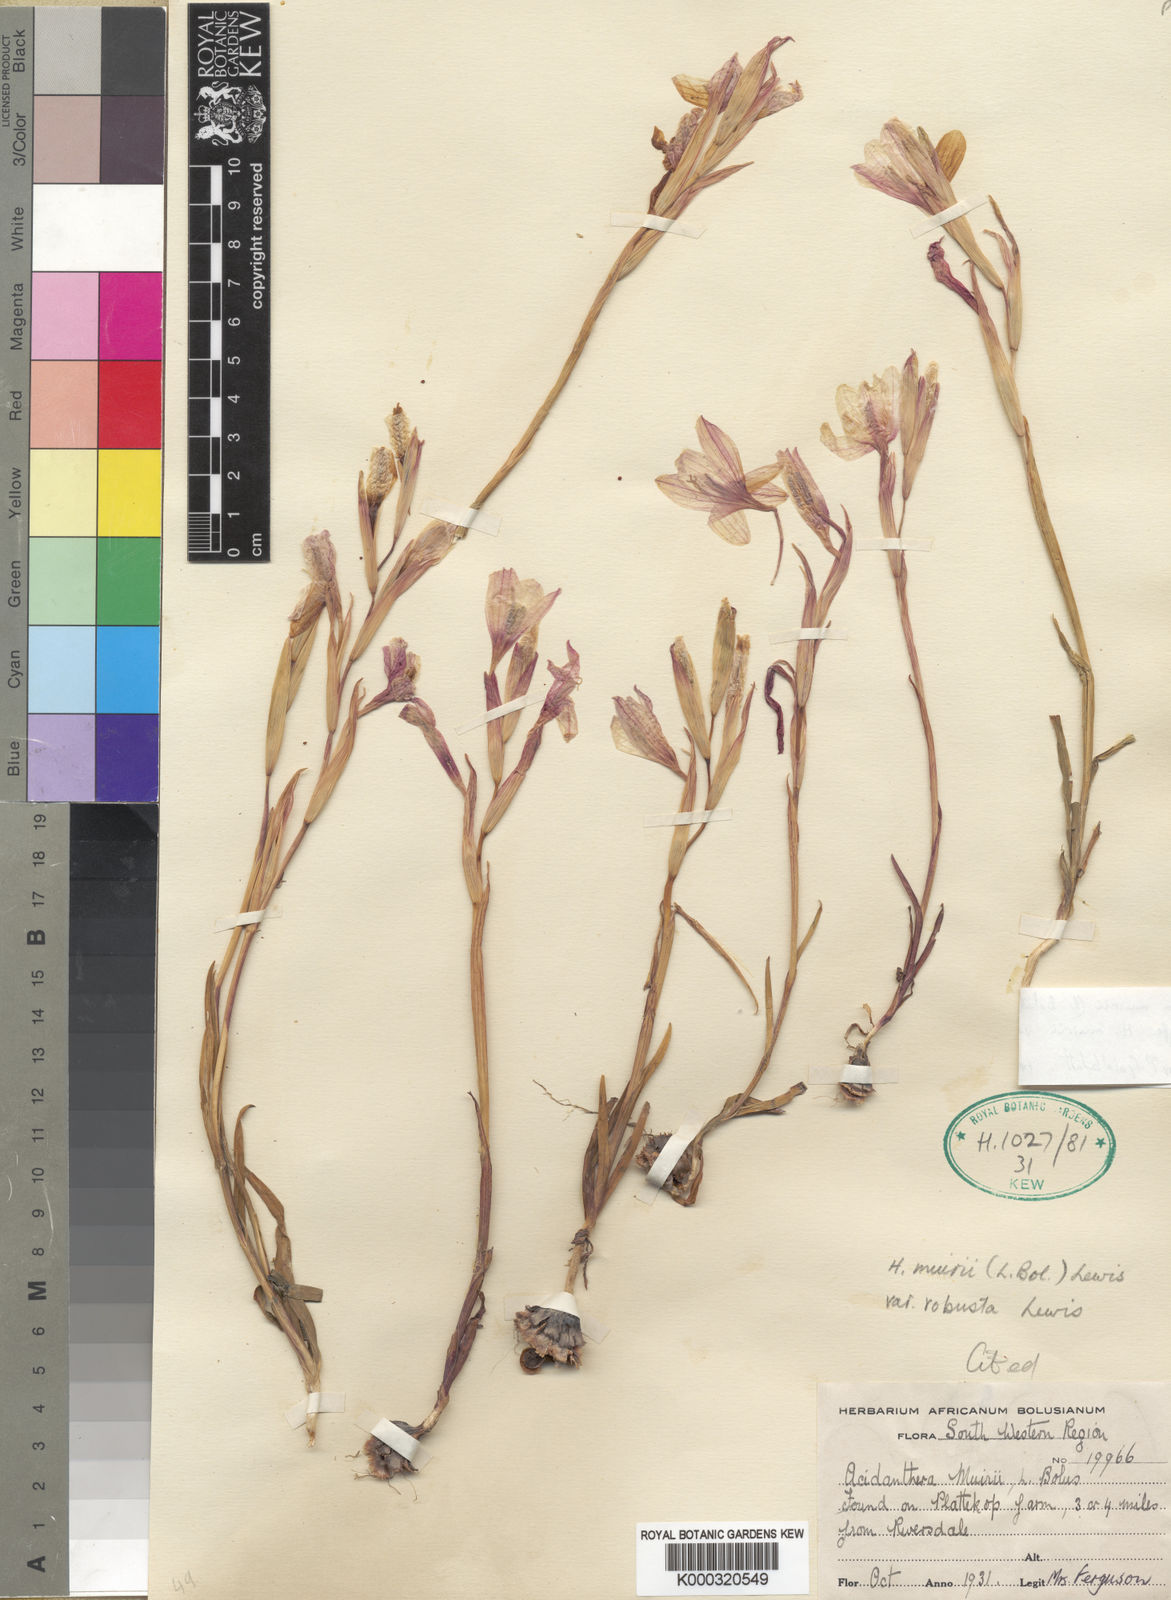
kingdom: Plantae
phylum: Tracheophyta
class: Liliopsida
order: Asparagales
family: Iridaceae
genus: Hesperantha
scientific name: Hesperantha muirii
